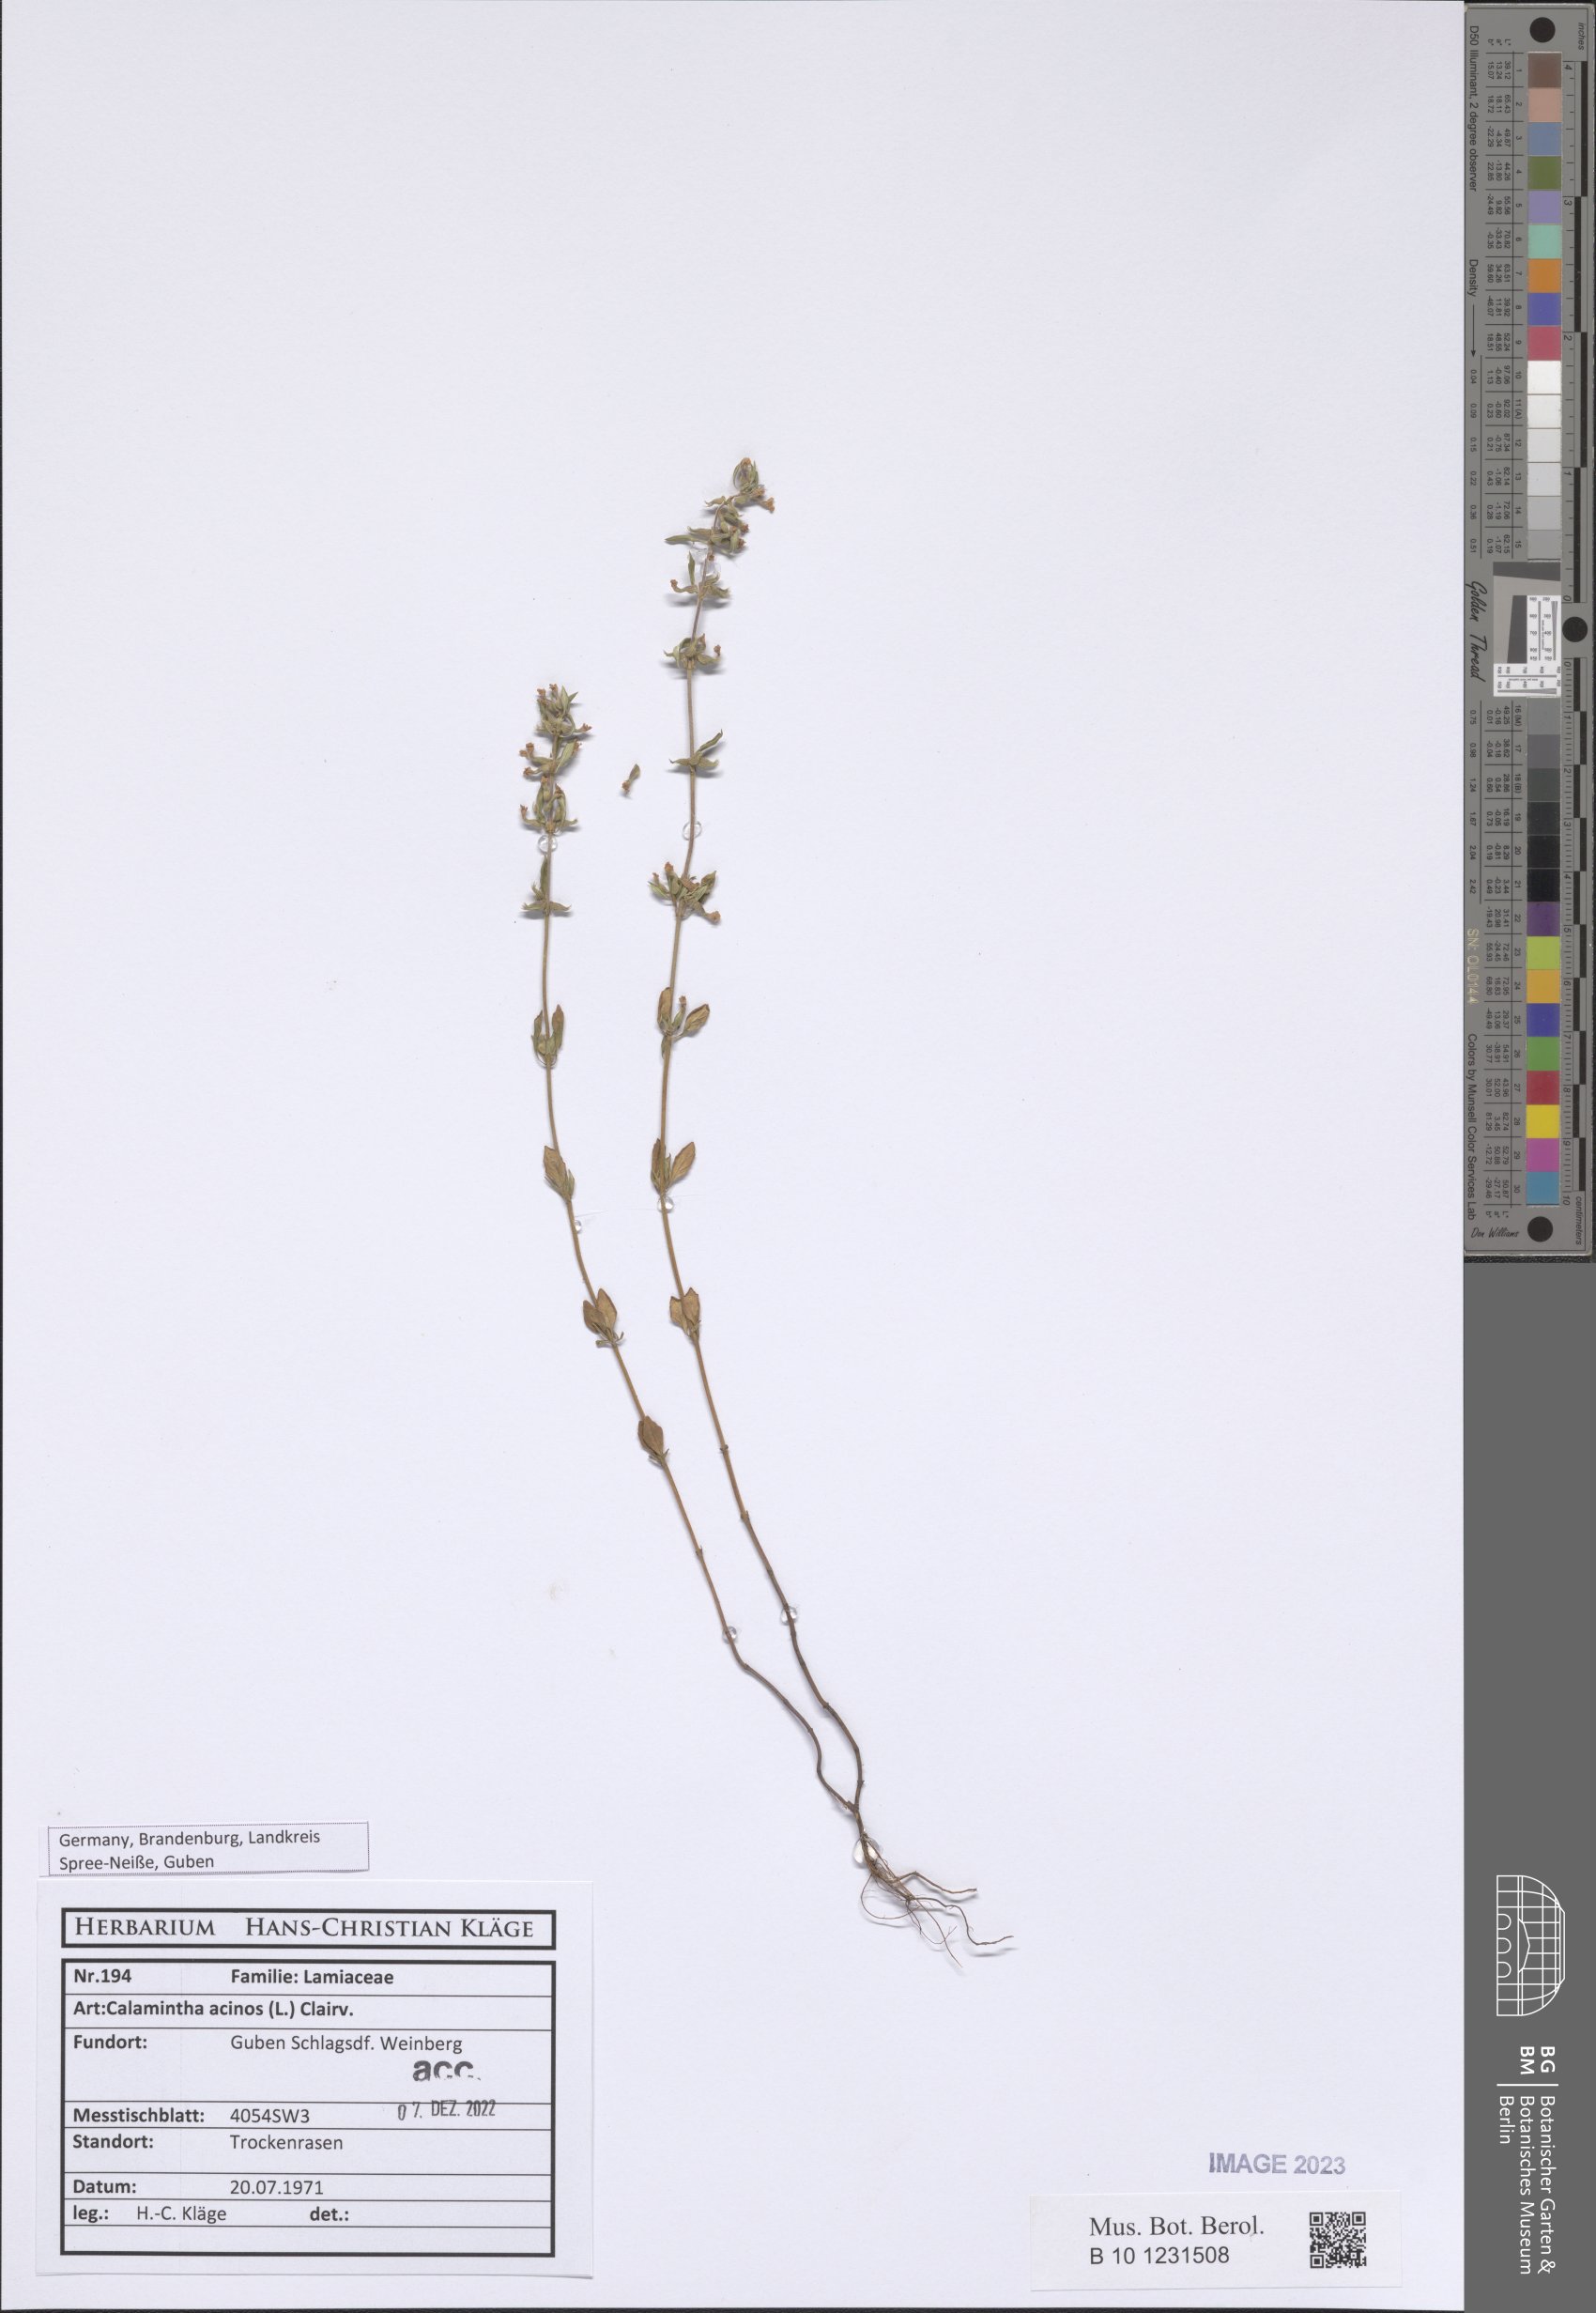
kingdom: Plantae
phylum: Tracheophyta
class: Magnoliopsida
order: Lamiales
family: Lamiaceae
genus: Clinopodium
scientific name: Clinopodium acinos
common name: Basil thyme
